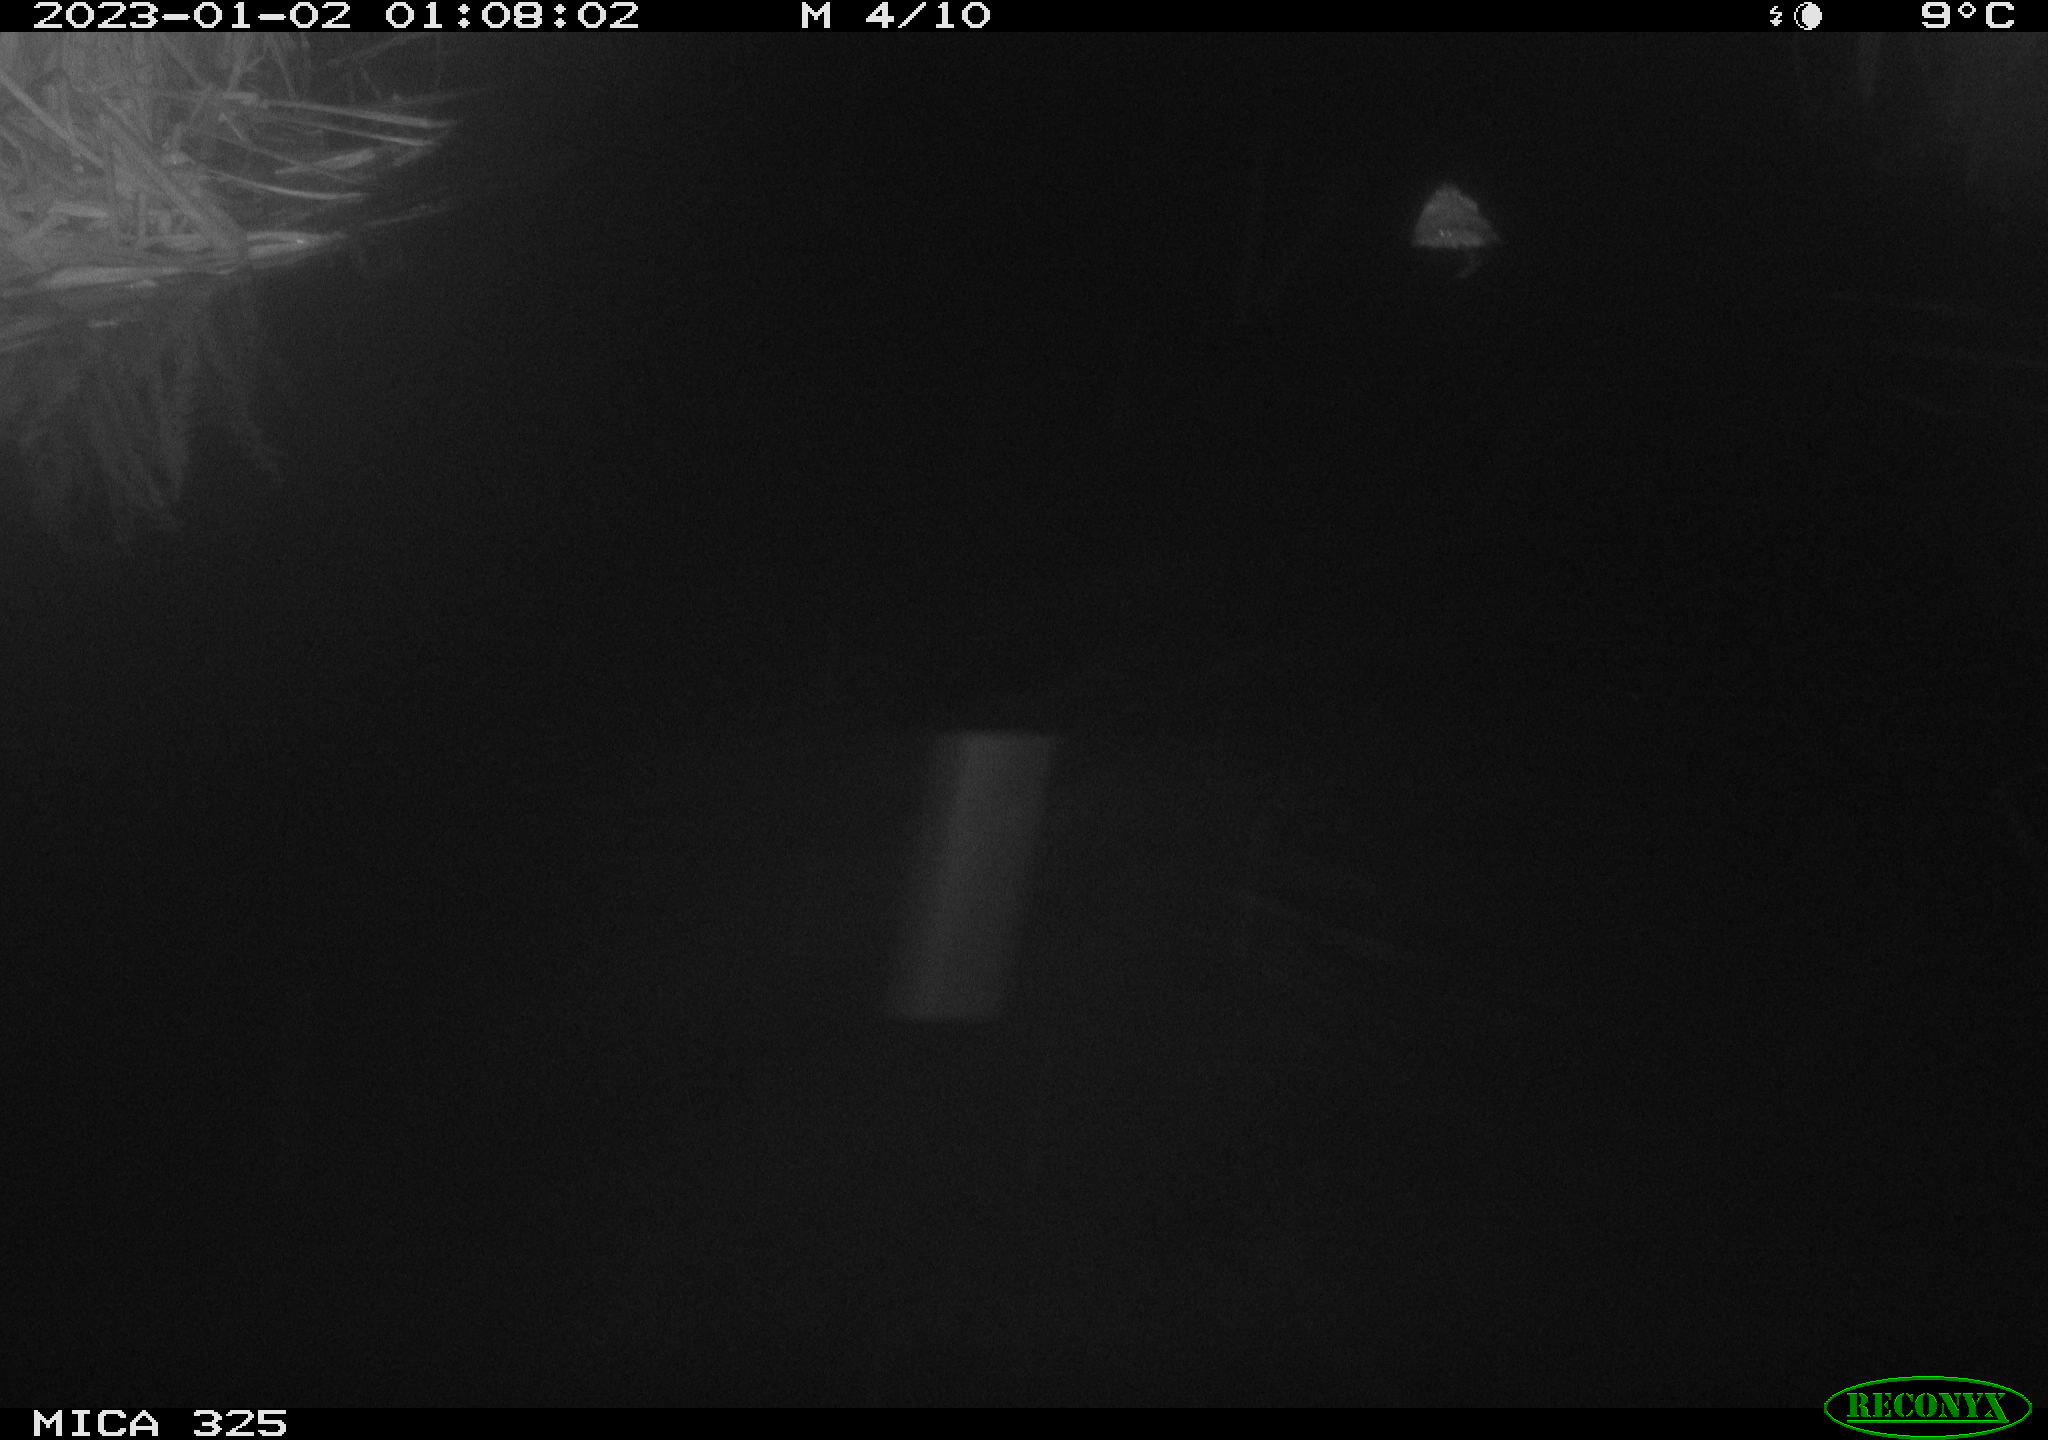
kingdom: Animalia
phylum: Chordata
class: Mammalia
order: Rodentia
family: Cricetidae
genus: Ondatra
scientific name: Ondatra zibethicus
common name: Muskrat
